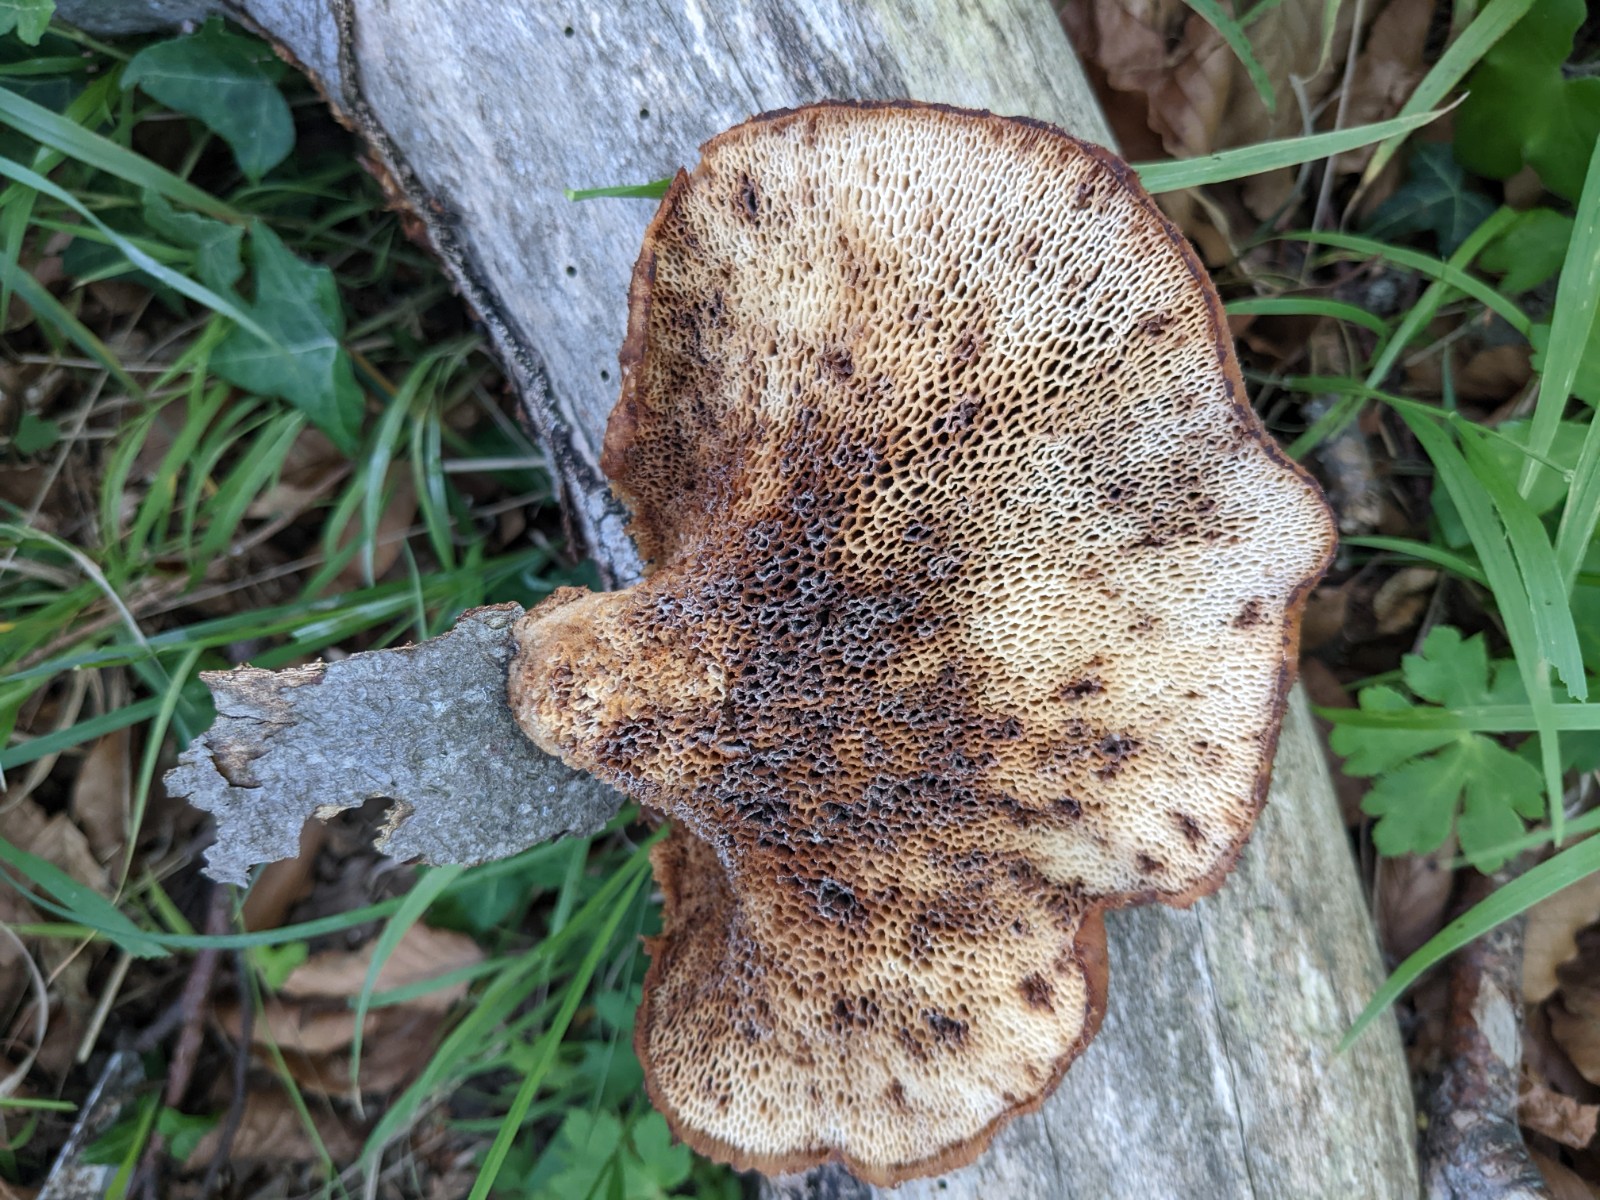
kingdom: Fungi
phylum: Basidiomycota
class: Agaricomycetes
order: Polyporales
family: Polyporaceae
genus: Cerioporus
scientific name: Cerioporus squamosus
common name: skællet stilkporesvamp
